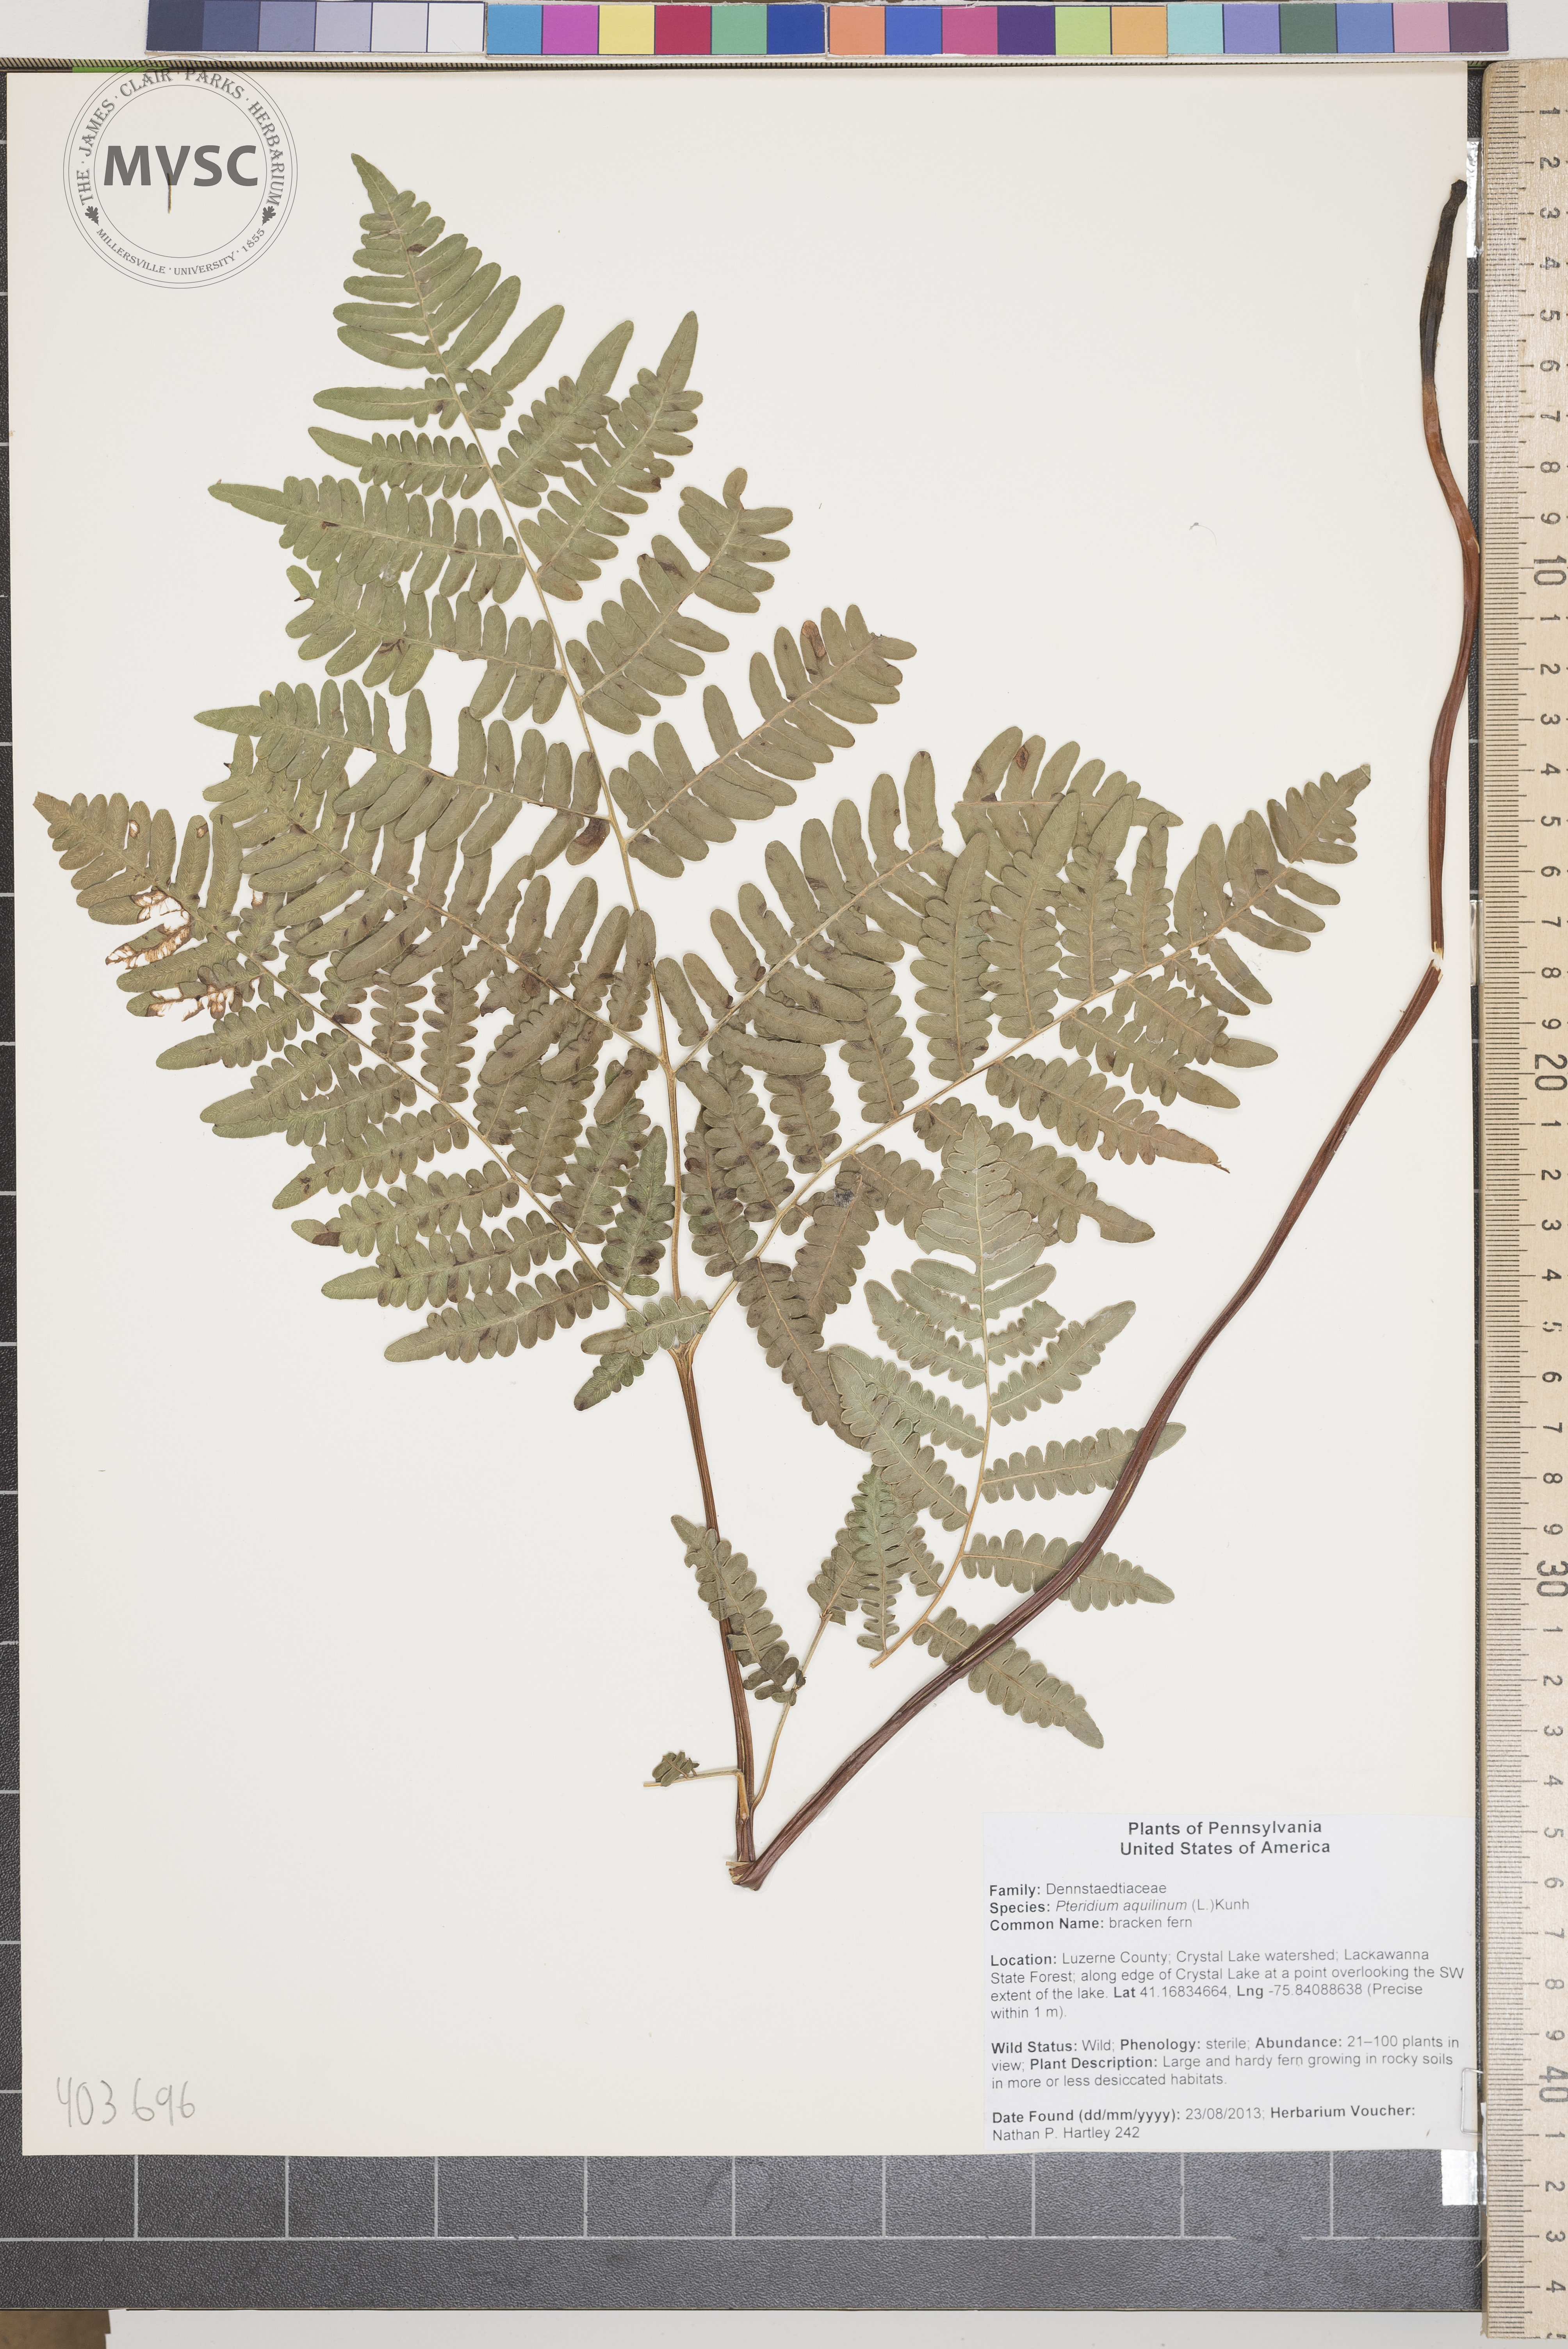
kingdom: Plantae
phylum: Tracheophyta
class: Polypodiopsida
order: Polypodiales
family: Dennstaedtiaceae
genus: Pteridium
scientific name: Pteridium aquilinum
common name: bracken fern
